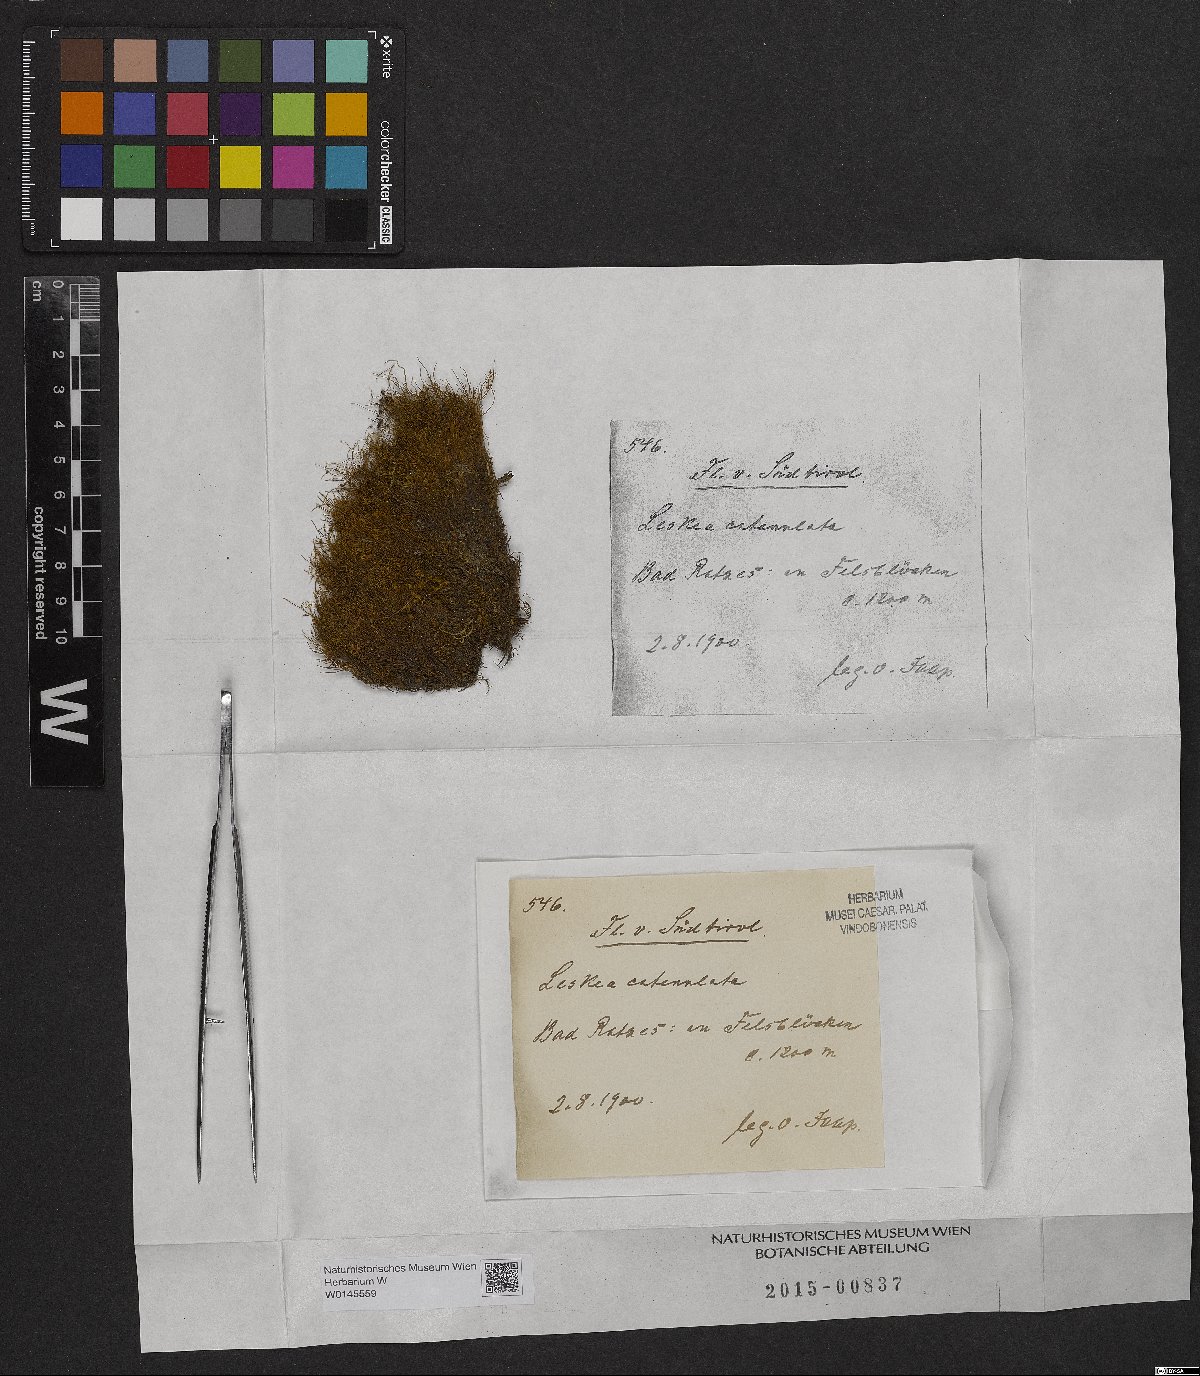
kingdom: Plantae
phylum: Bryophyta
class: Bryopsida
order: Hypnales
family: Pseudoleskeellaceae
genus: Pseudoleskeella
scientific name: Pseudoleskeella catenulata
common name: Chained leskea
